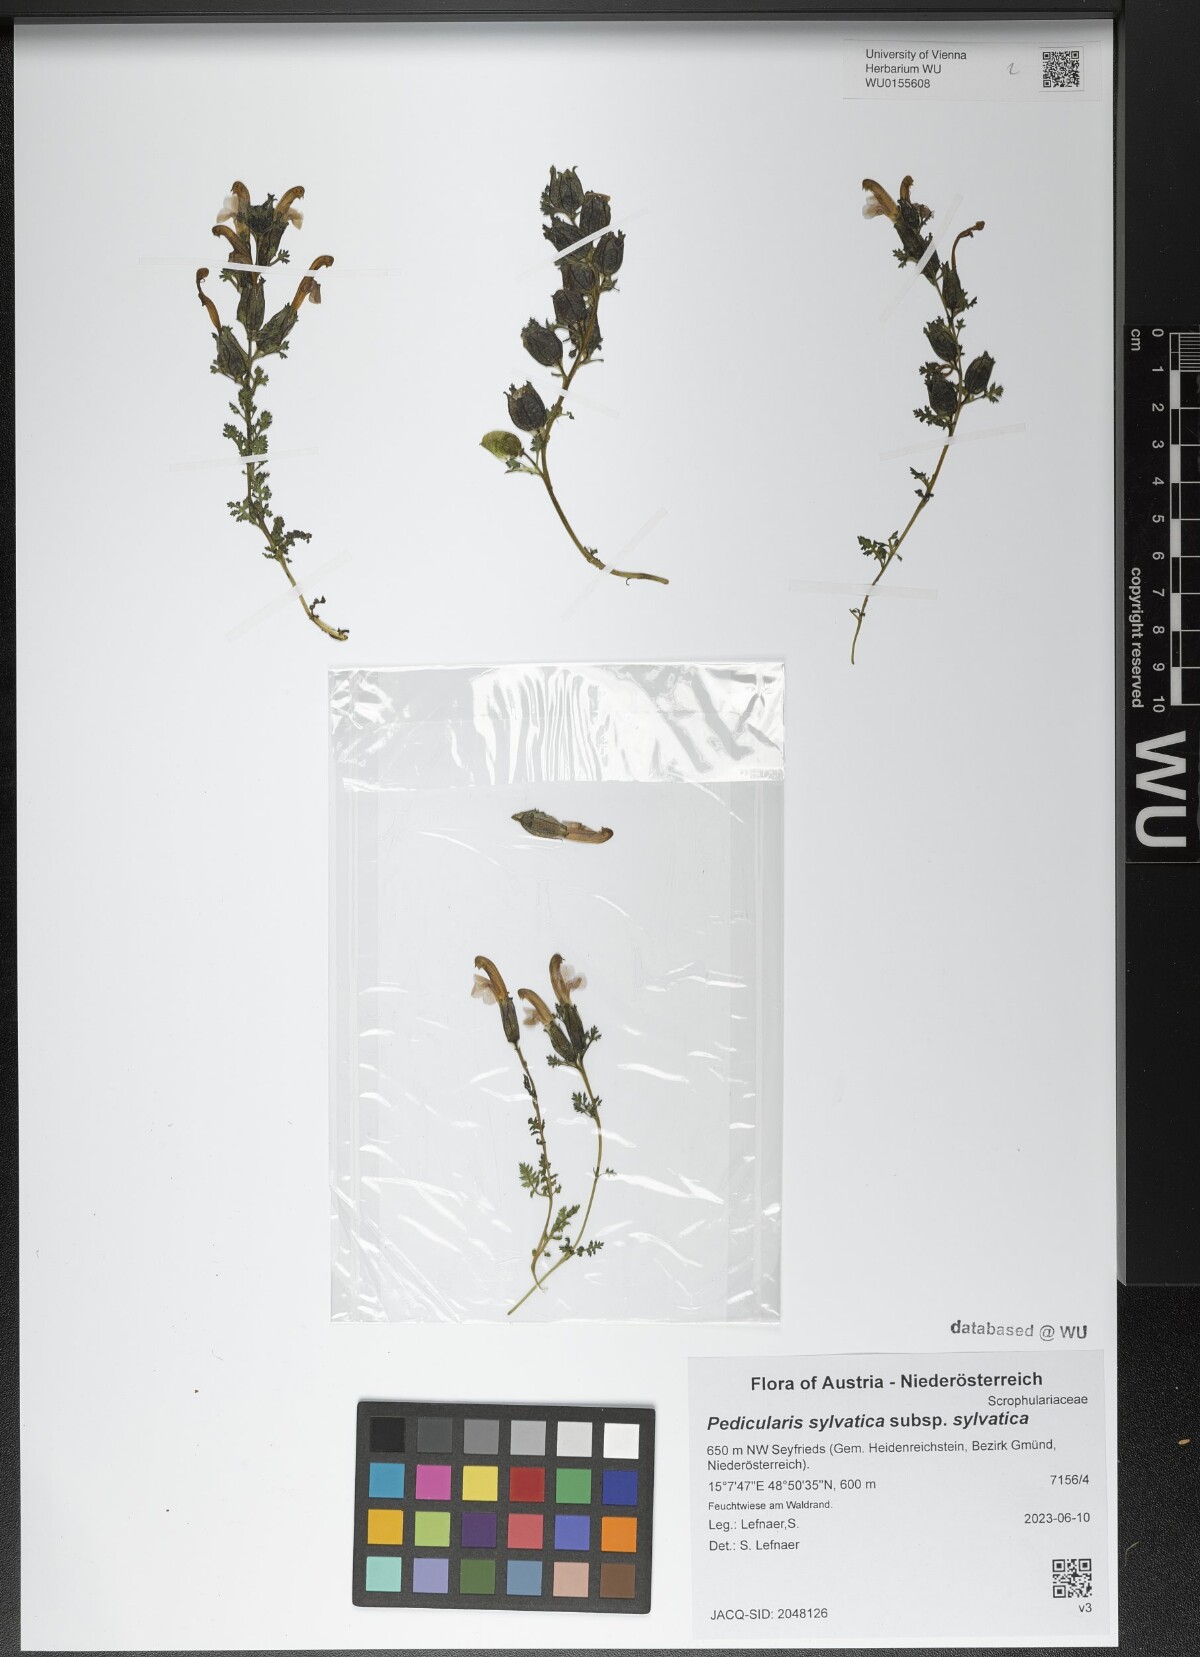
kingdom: Plantae
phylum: Tracheophyta
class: Magnoliopsida
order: Lamiales
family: Orobanchaceae
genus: Pedicularis
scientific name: Pedicularis sylvatica
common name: Lousewort
